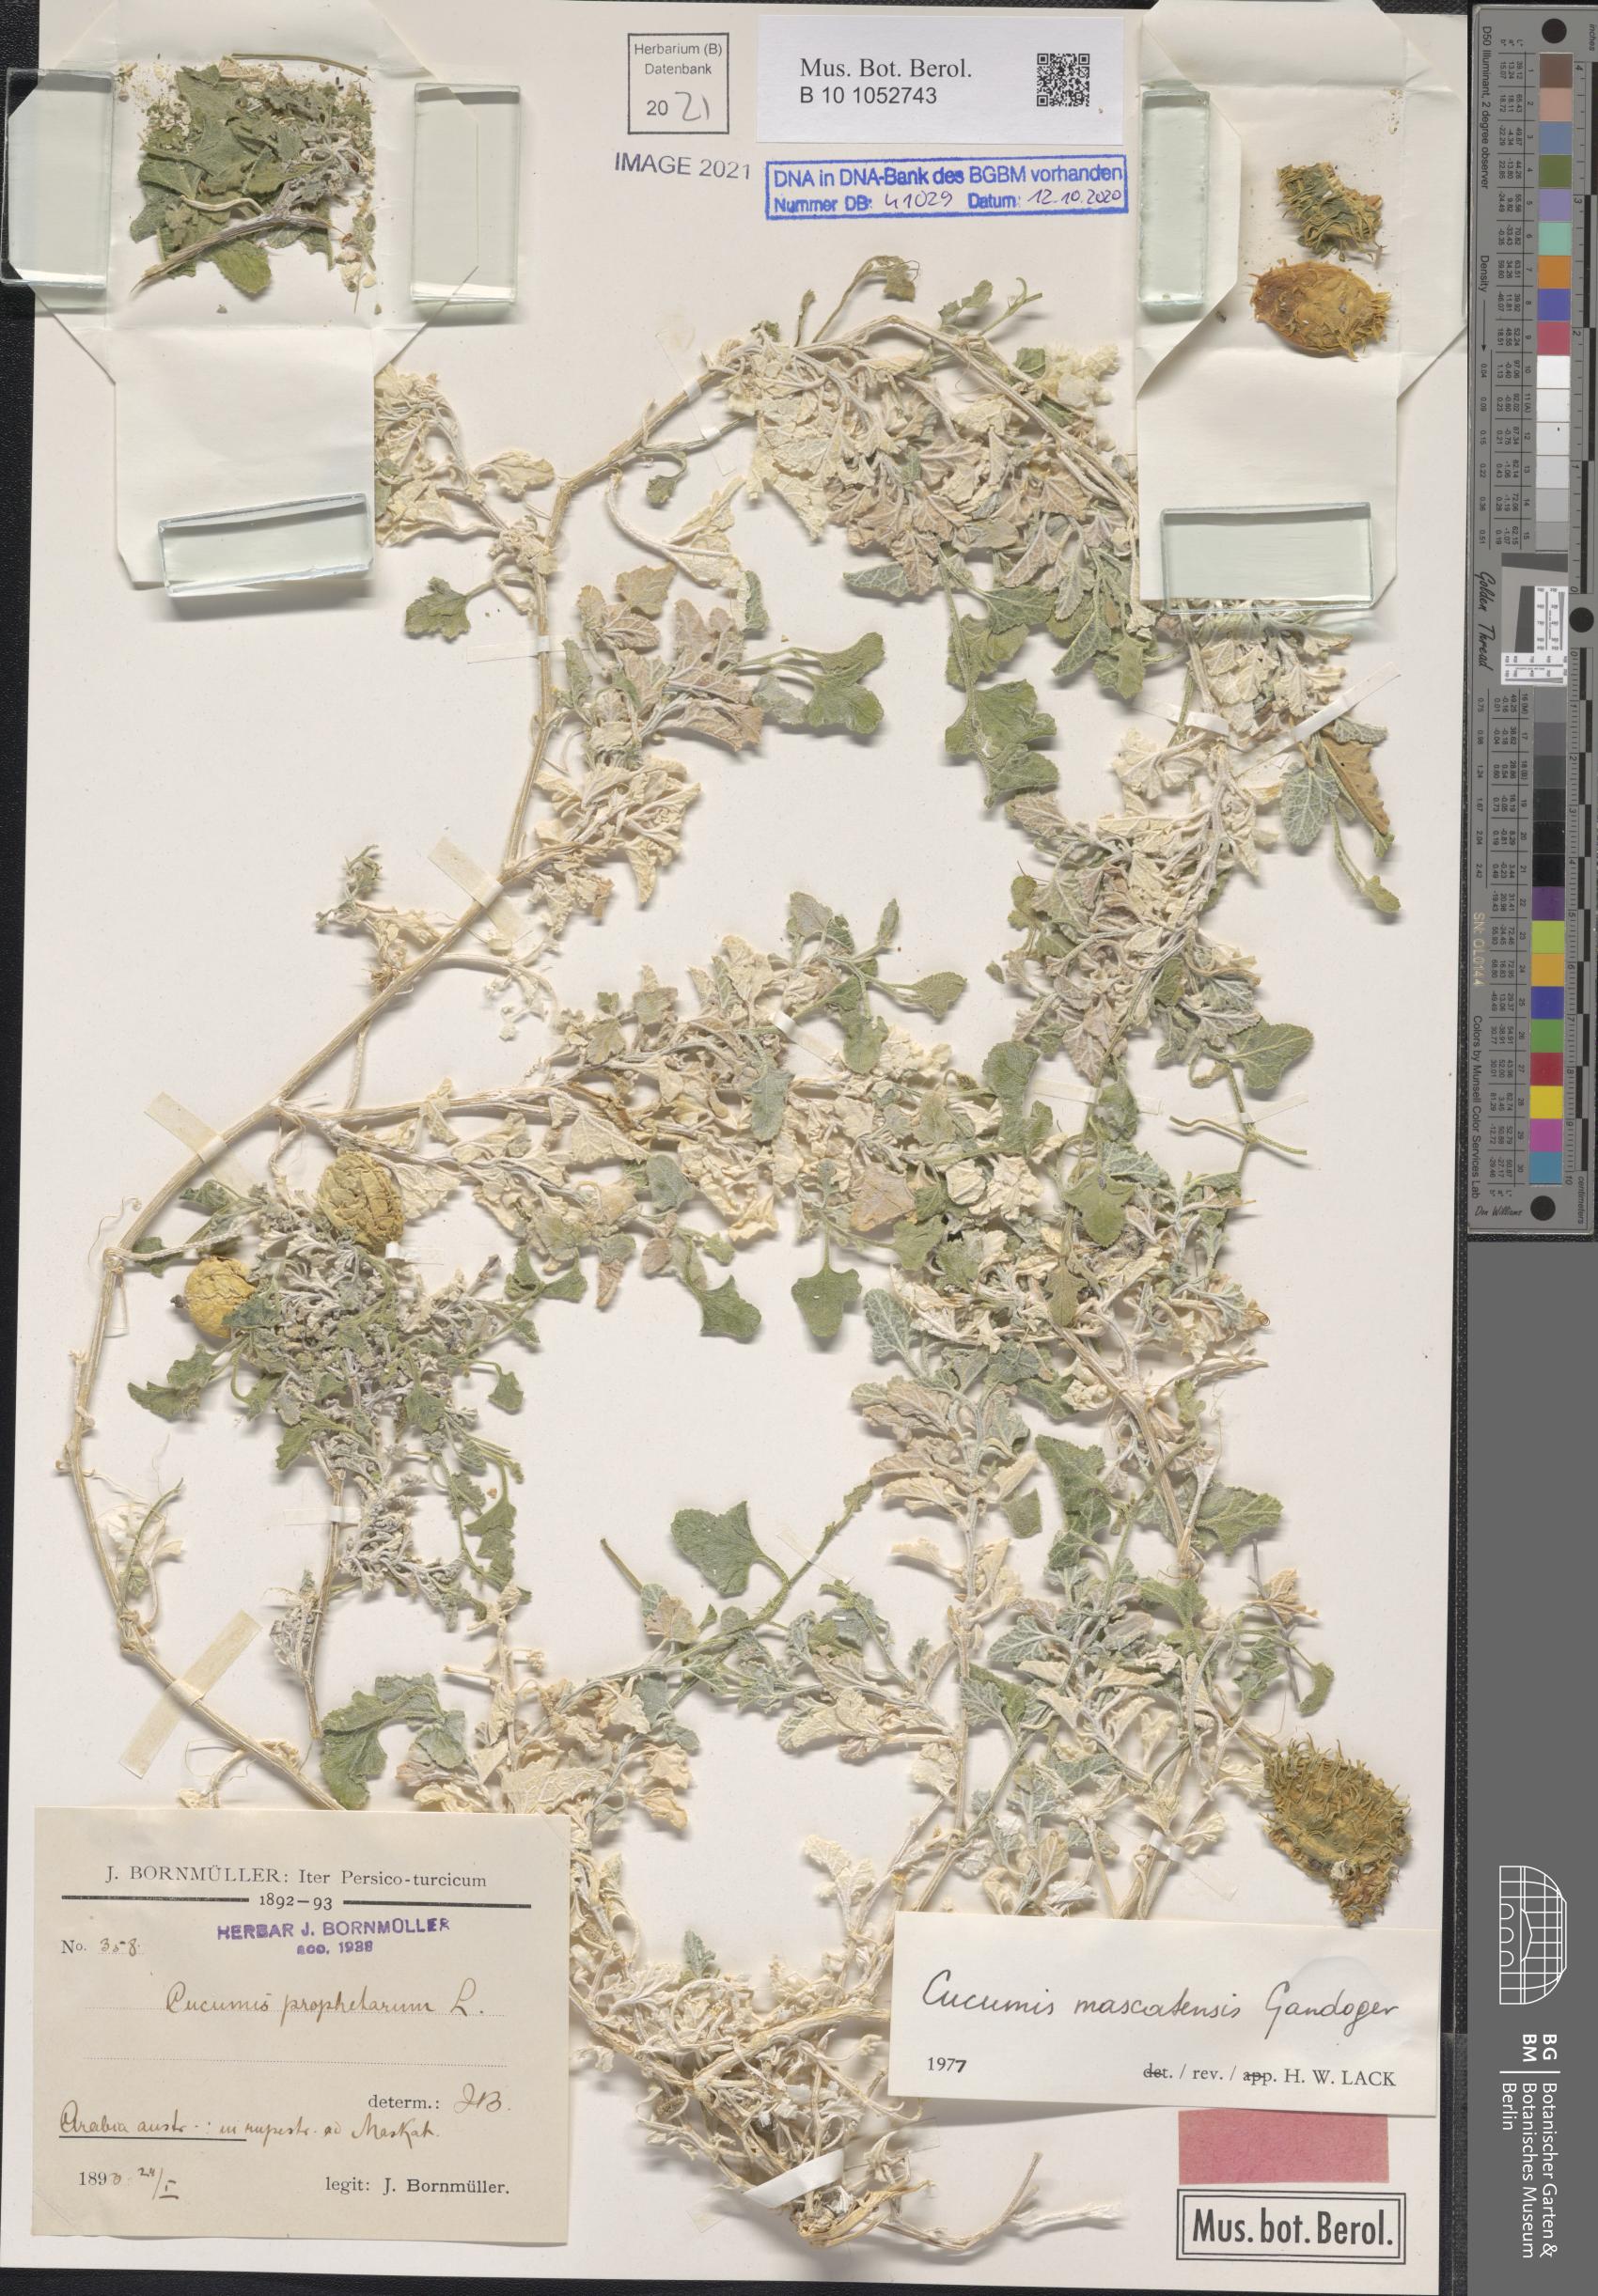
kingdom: Plantae
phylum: Tracheophyta
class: Magnoliopsida
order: Cucurbitales
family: Cucurbitaceae
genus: Cucumis
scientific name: Cucumis prophetarum
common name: Wild cucumber
